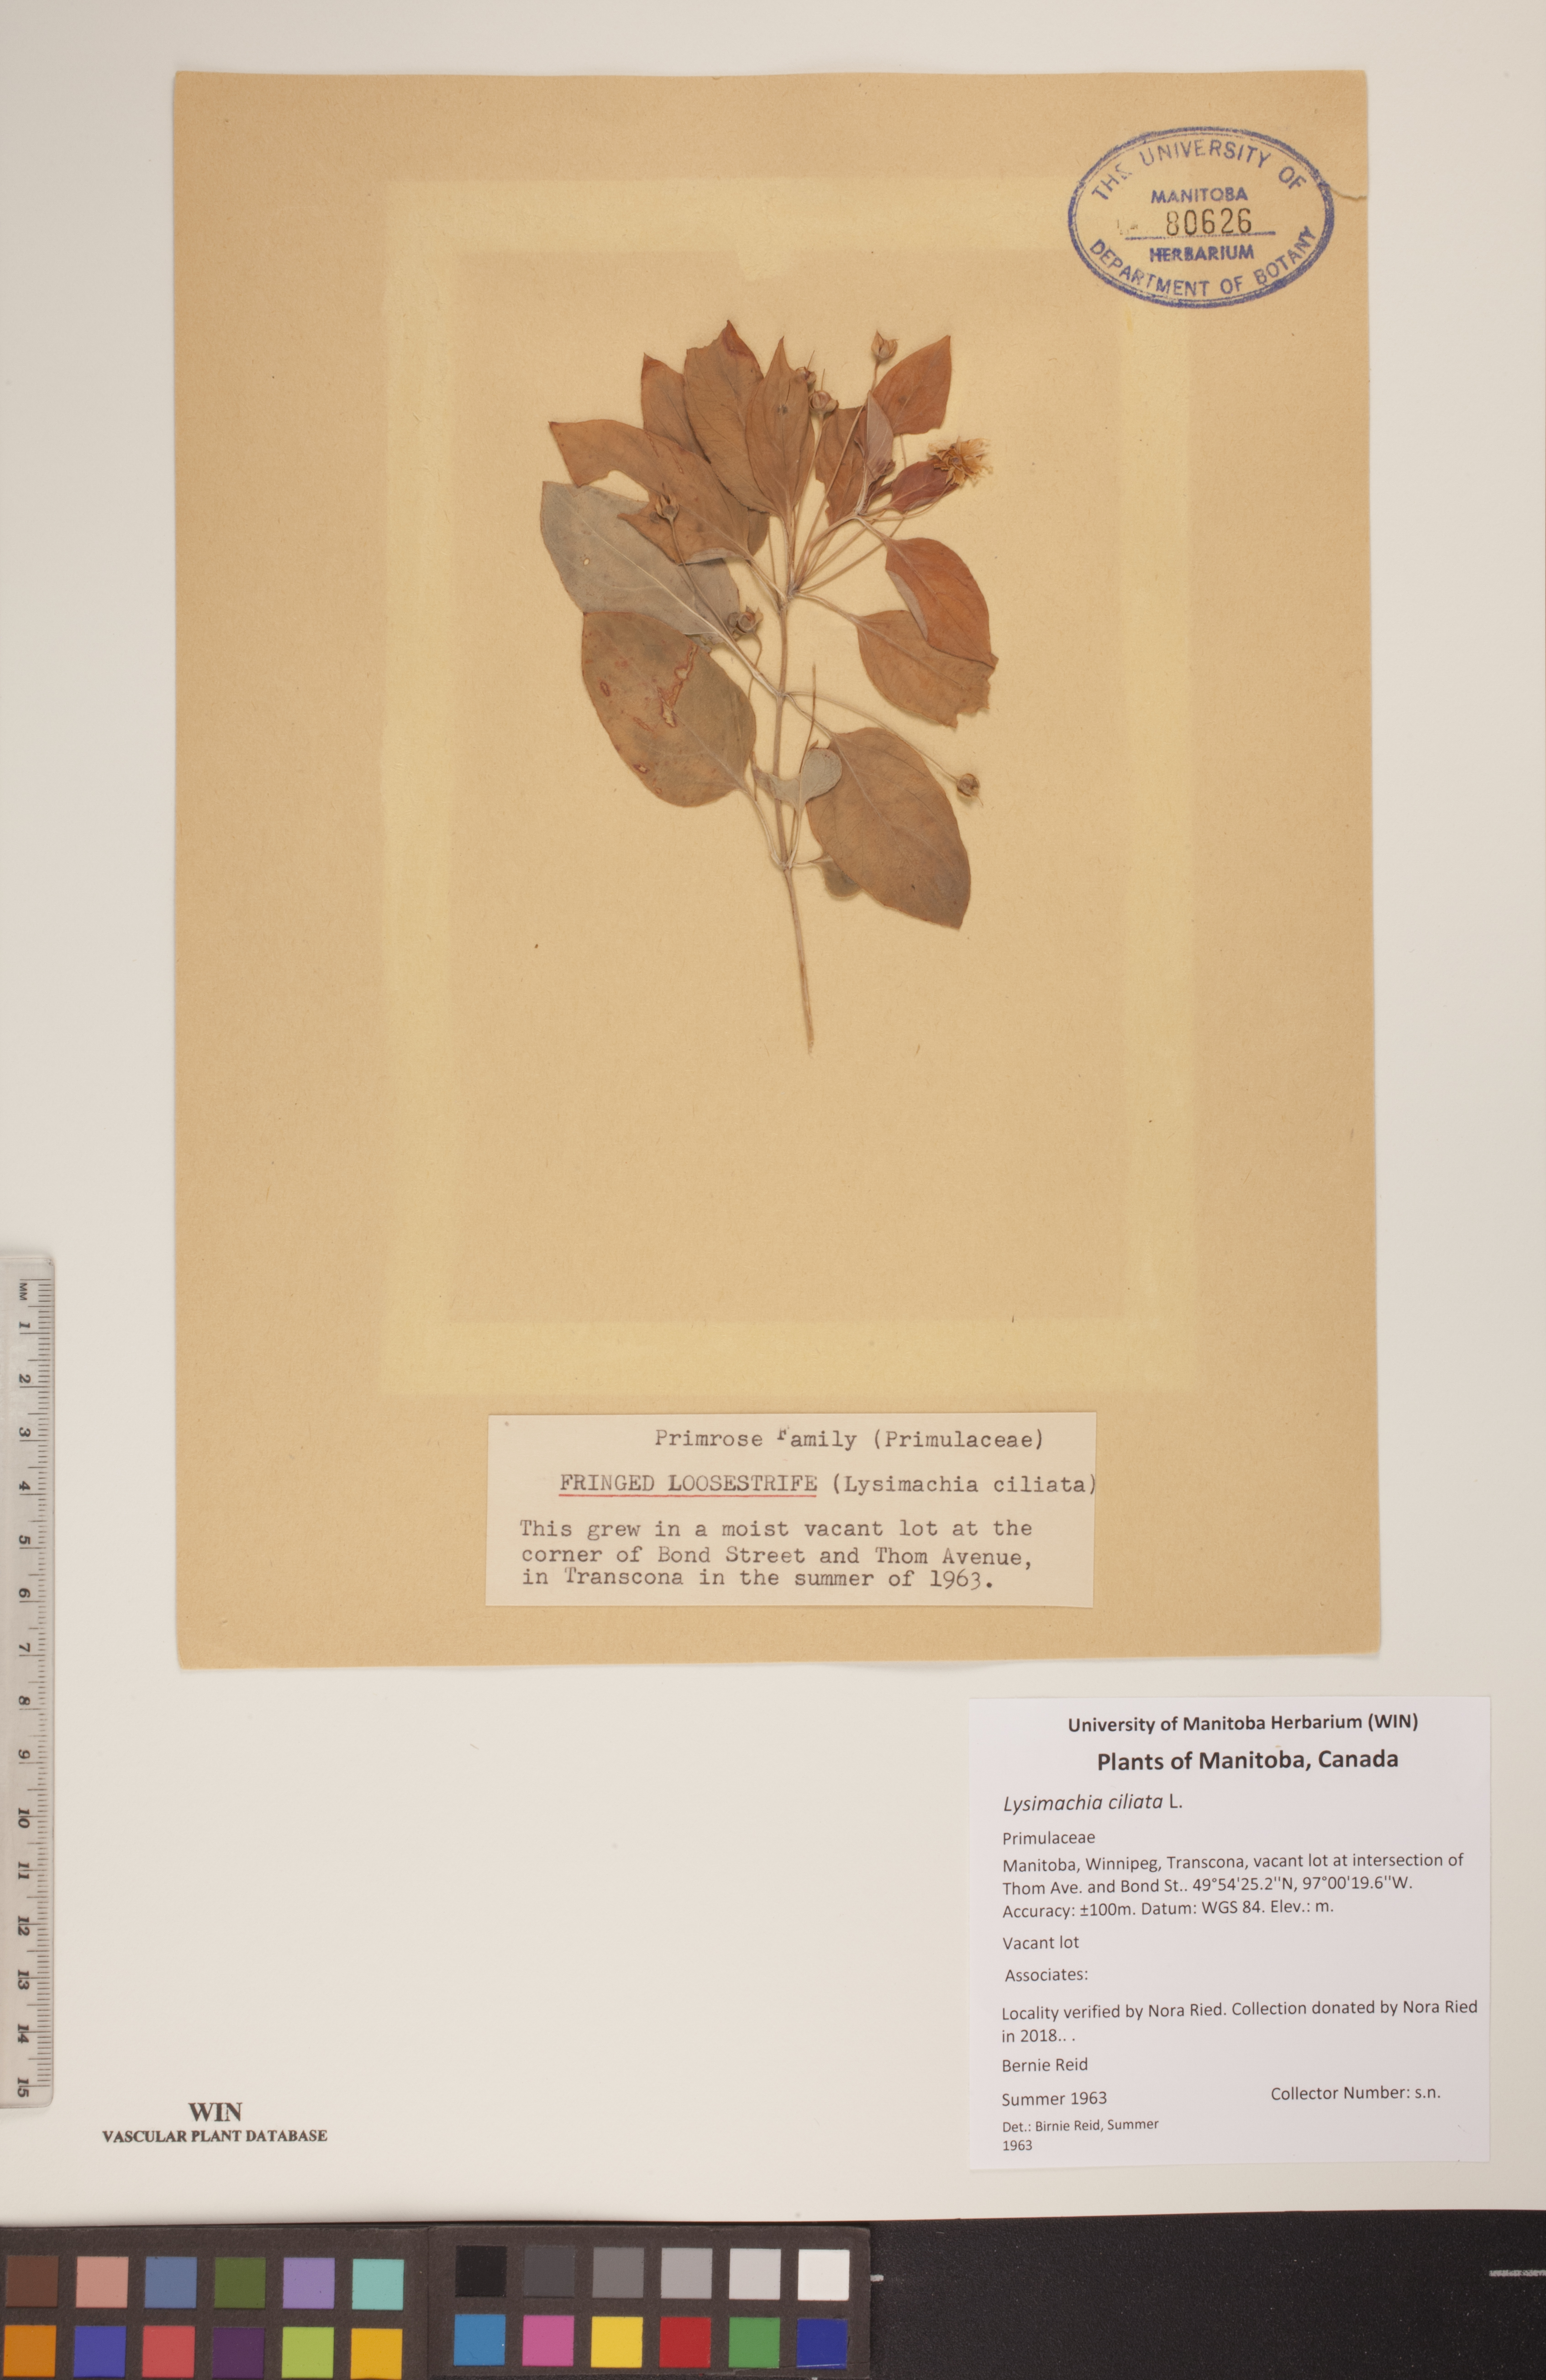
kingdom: Plantae
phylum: Tracheophyta
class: Magnoliopsida
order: Ericales
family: Primulaceae
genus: Lysimachia
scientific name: Lysimachia ciliata
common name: Fringed loosestrife
